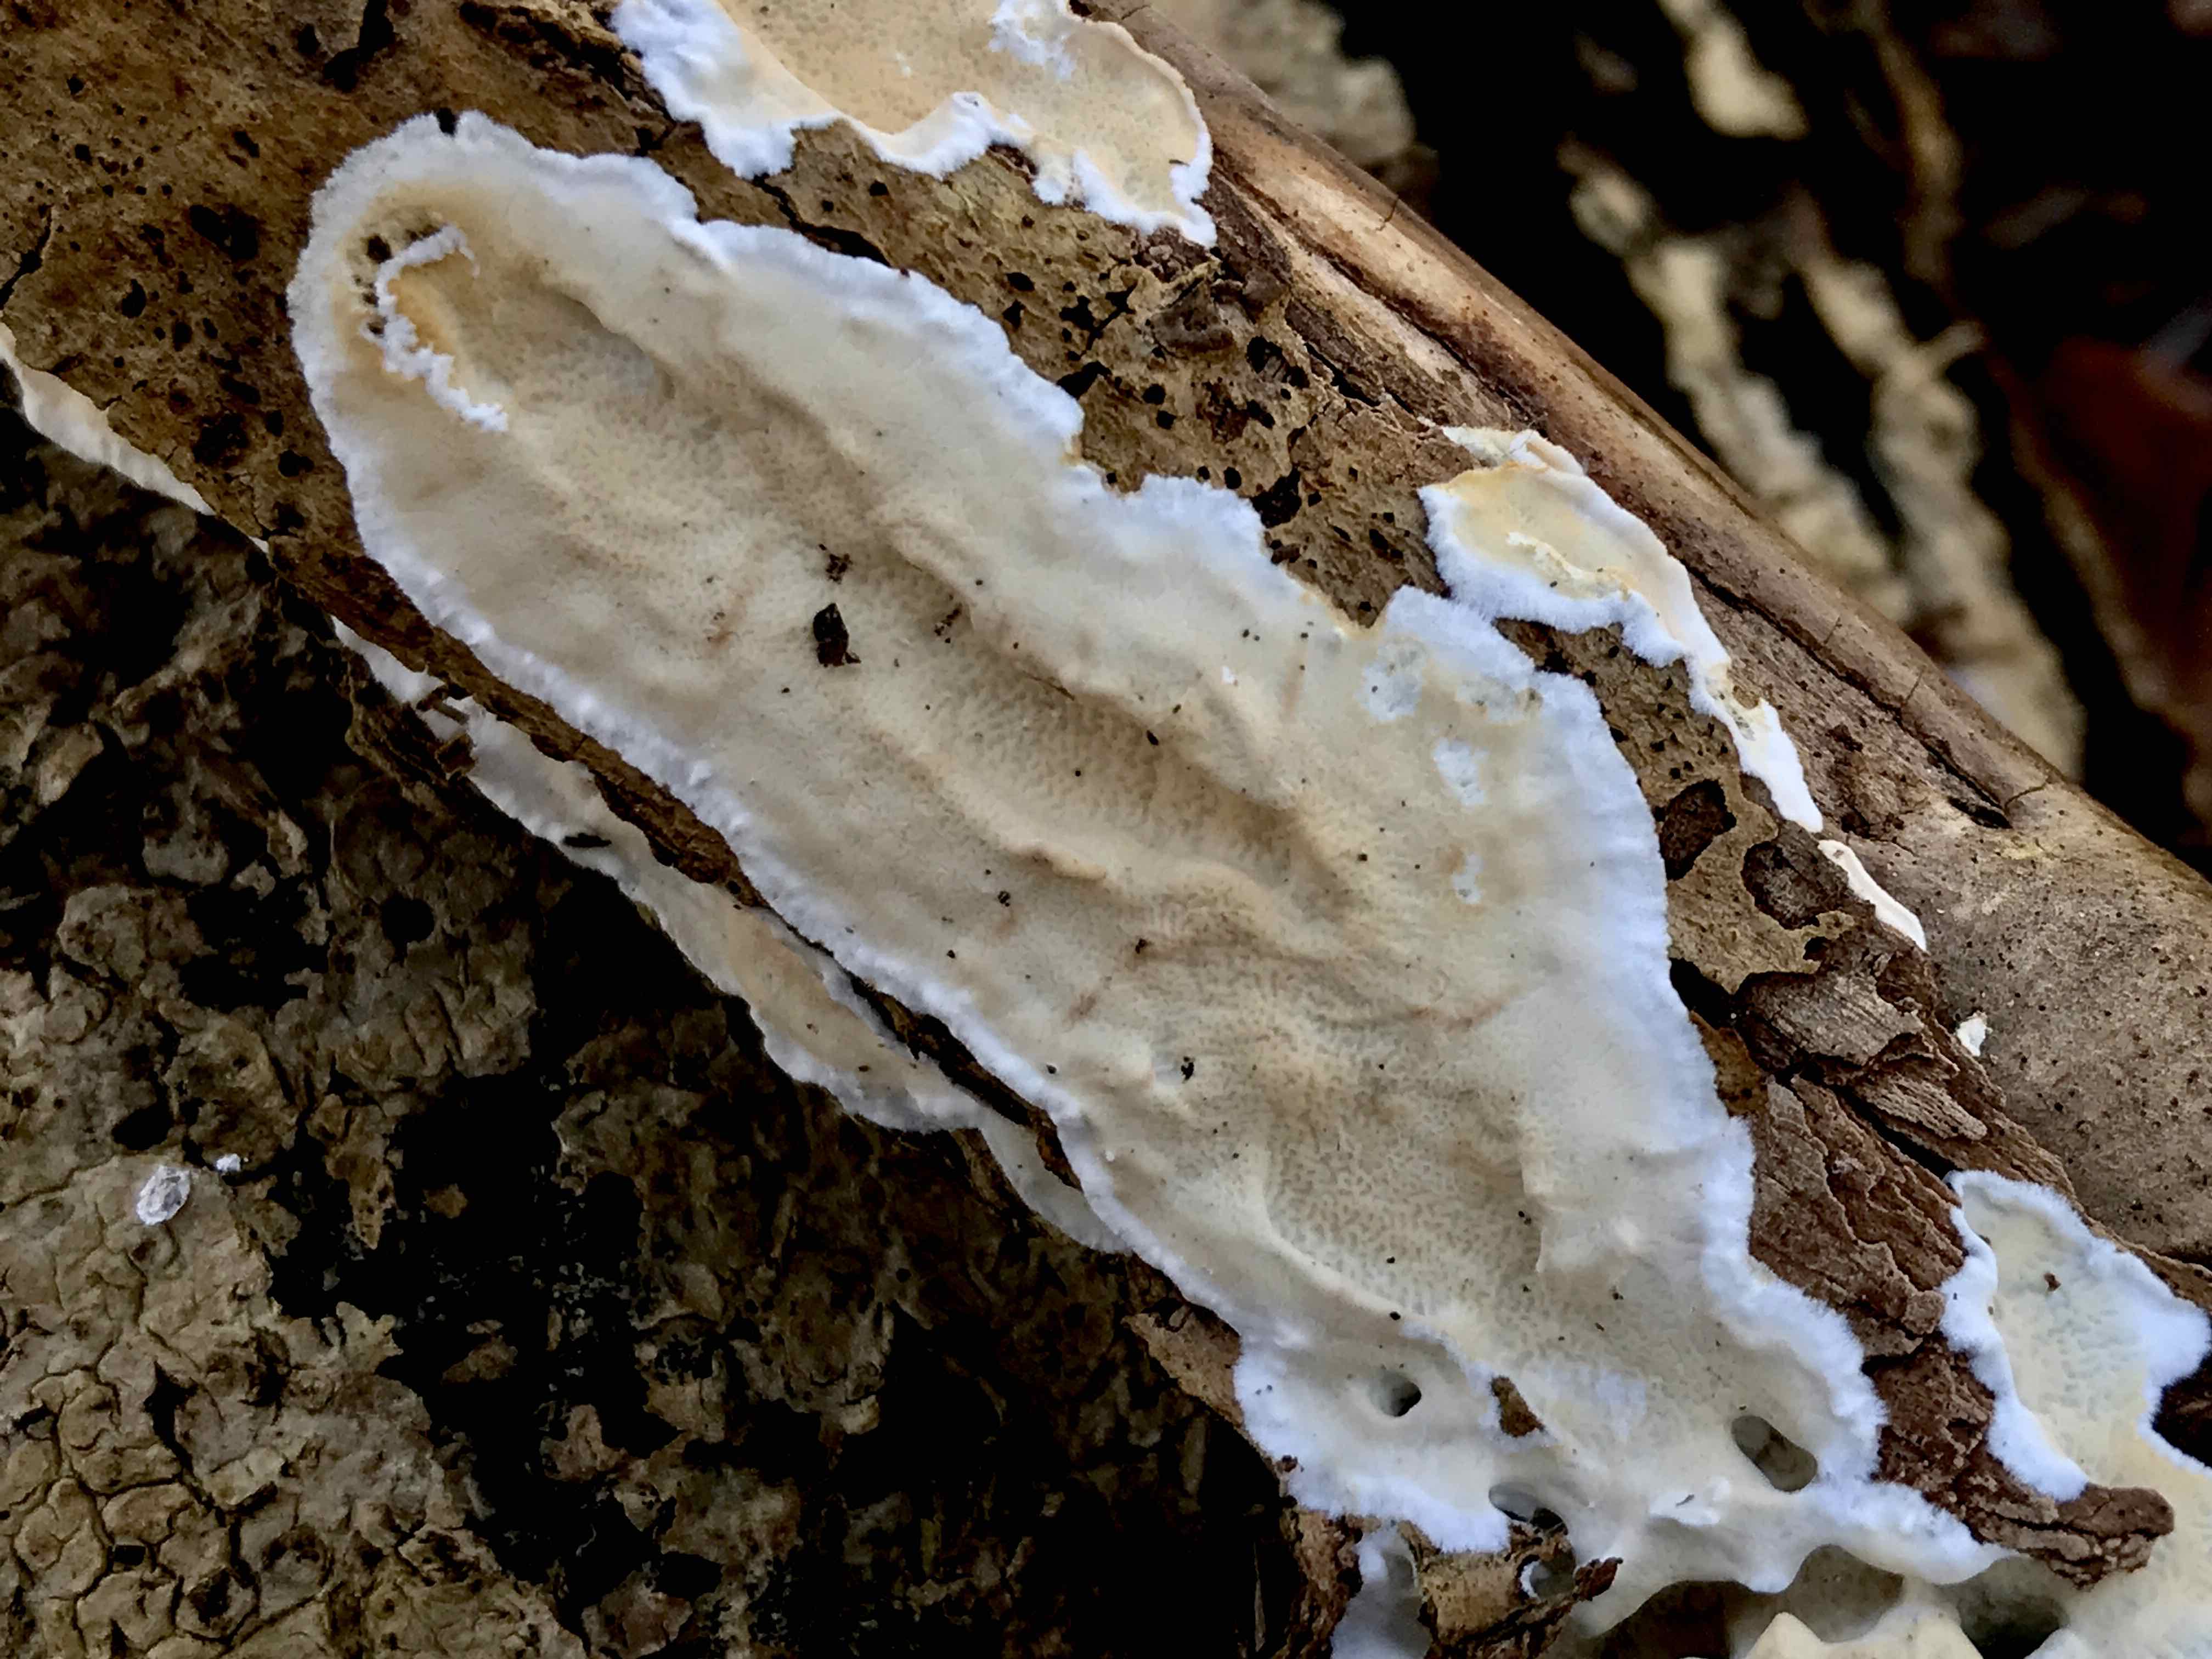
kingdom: Fungi
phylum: Basidiomycota
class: Agaricomycetes
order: Polyporales
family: Irpicaceae
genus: Byssomerulius
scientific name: Byssomerulius corium
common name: læder-åresvamp
